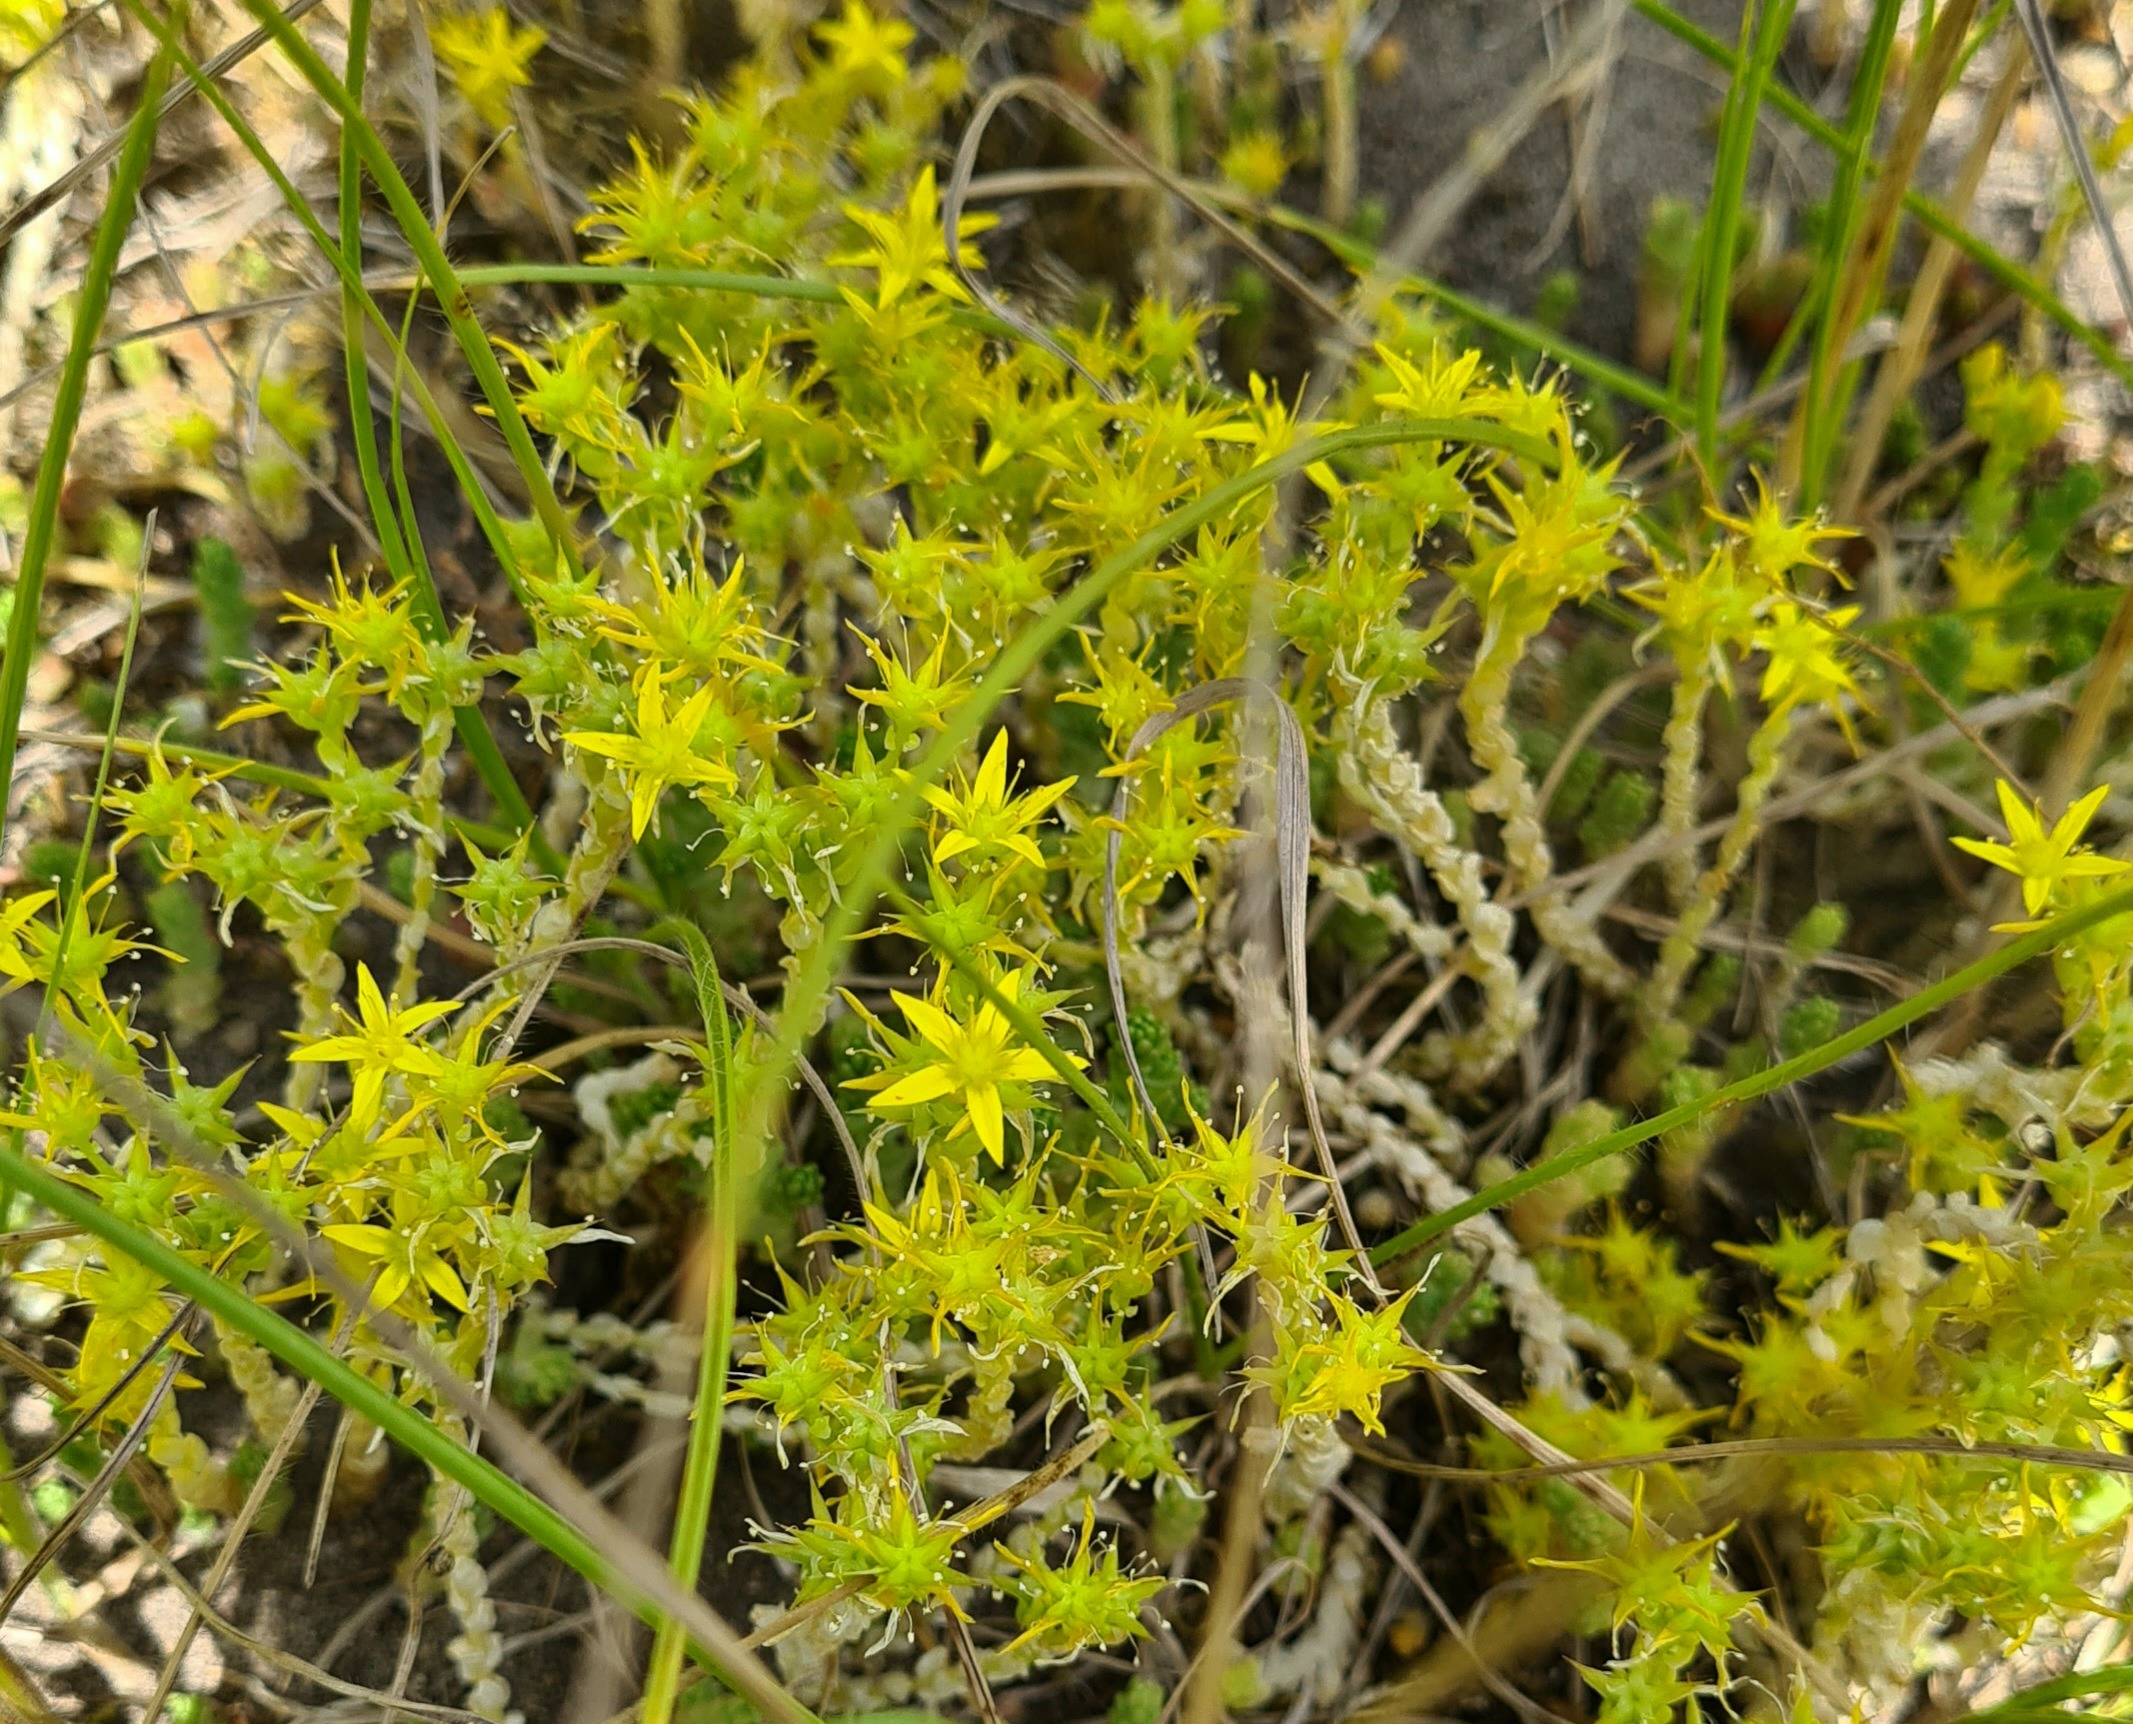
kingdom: Plantae
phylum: Tracheophyta
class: Magnoliopsida
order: Saxifragales
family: Crassulaceae
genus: Sedum
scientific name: Sedum acre
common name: Bidende stenurt
